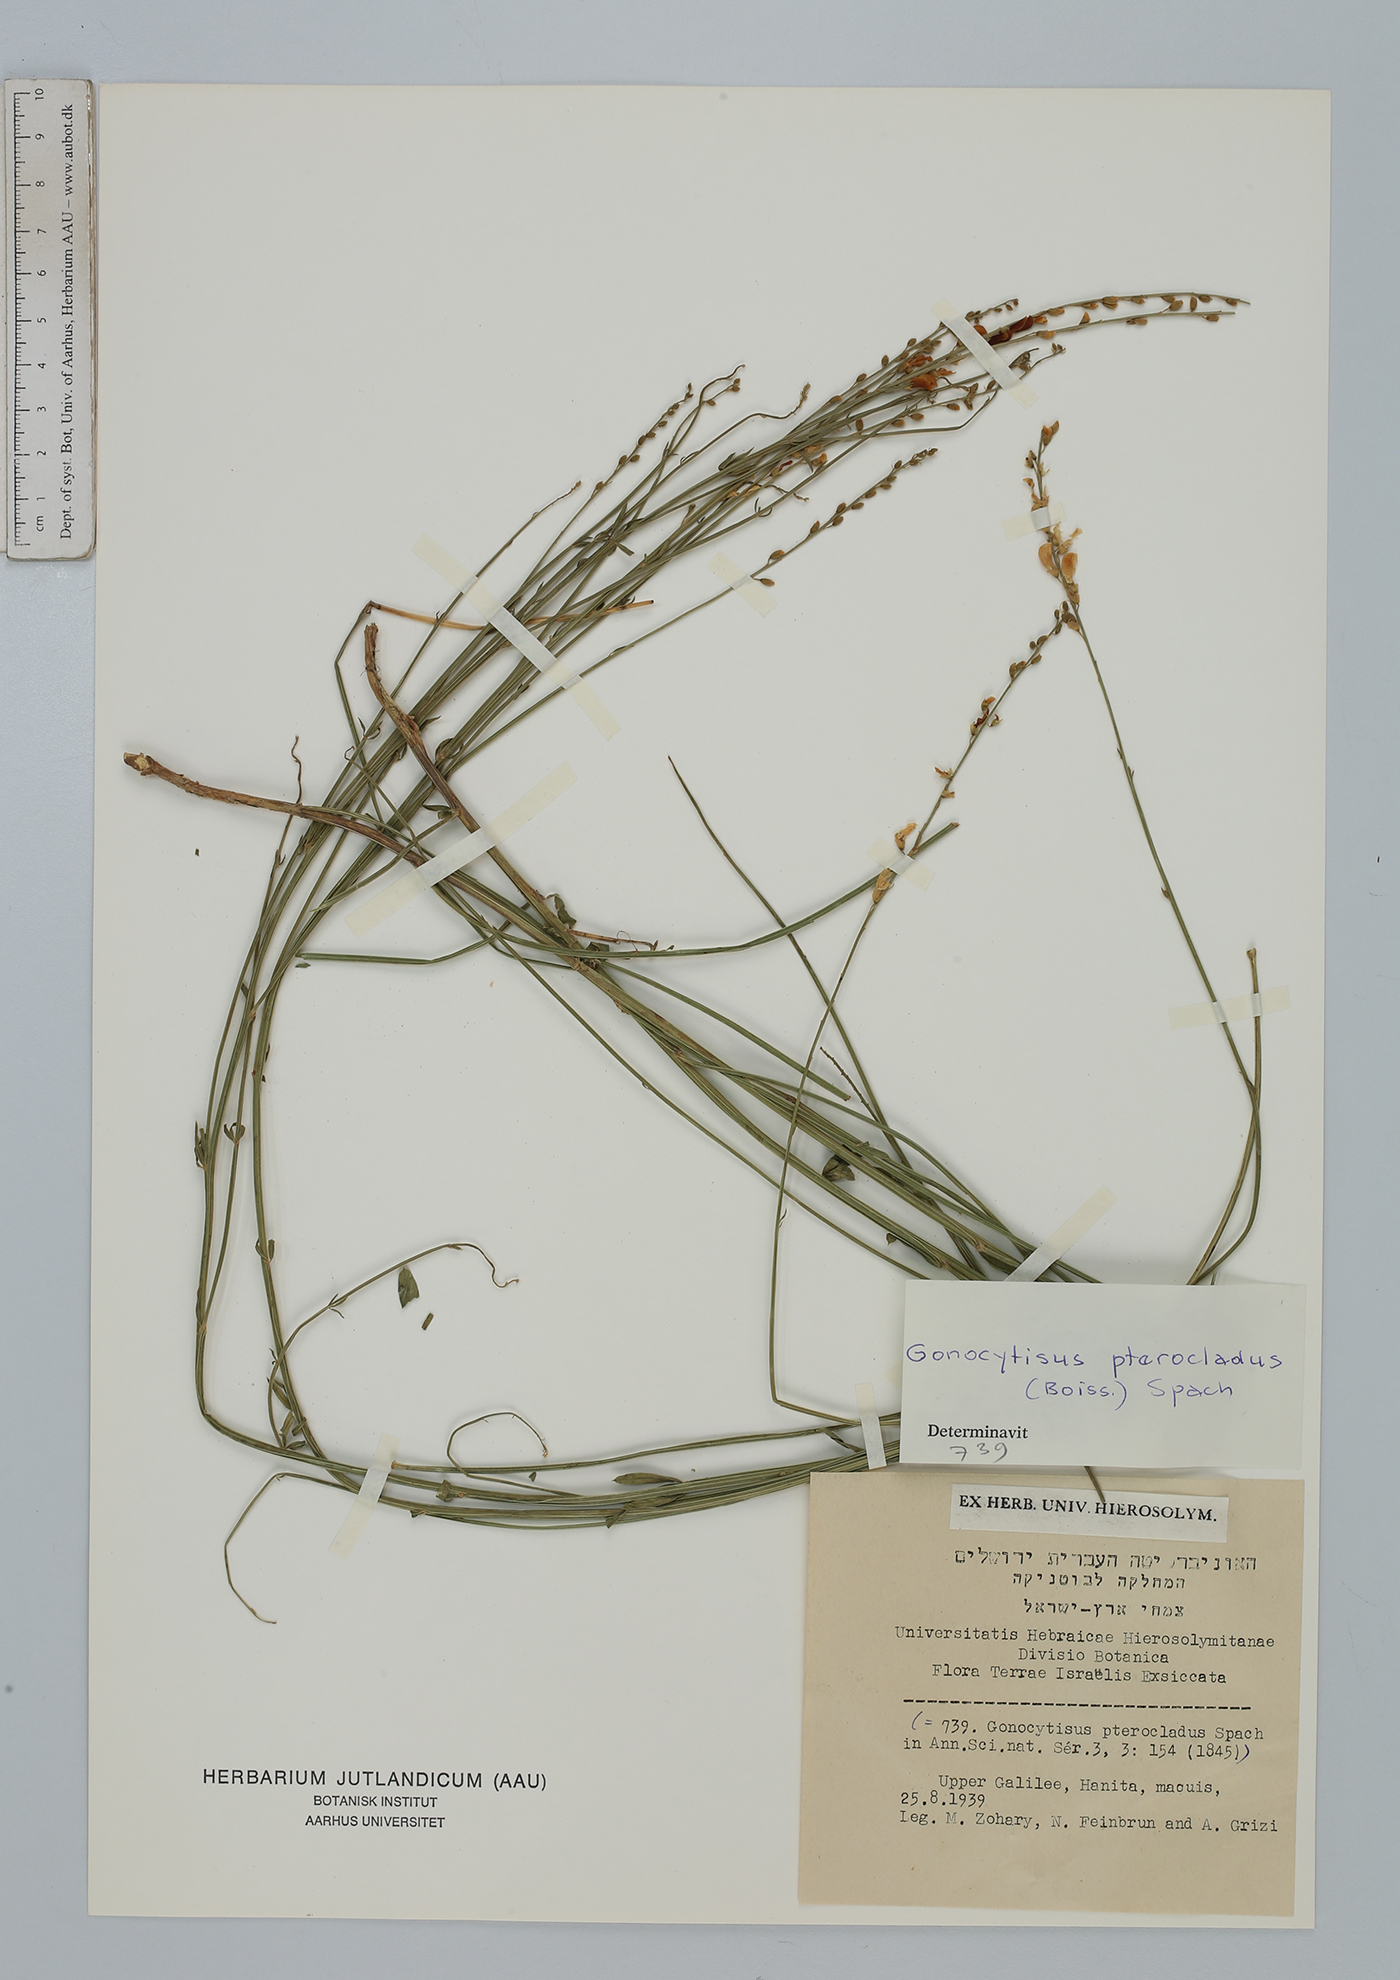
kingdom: Plantae
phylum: Tracheophyta
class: Magnoliopsida
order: Fabales
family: Fabaceae
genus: Gonocytisus
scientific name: Gonocytisus pterocladus
